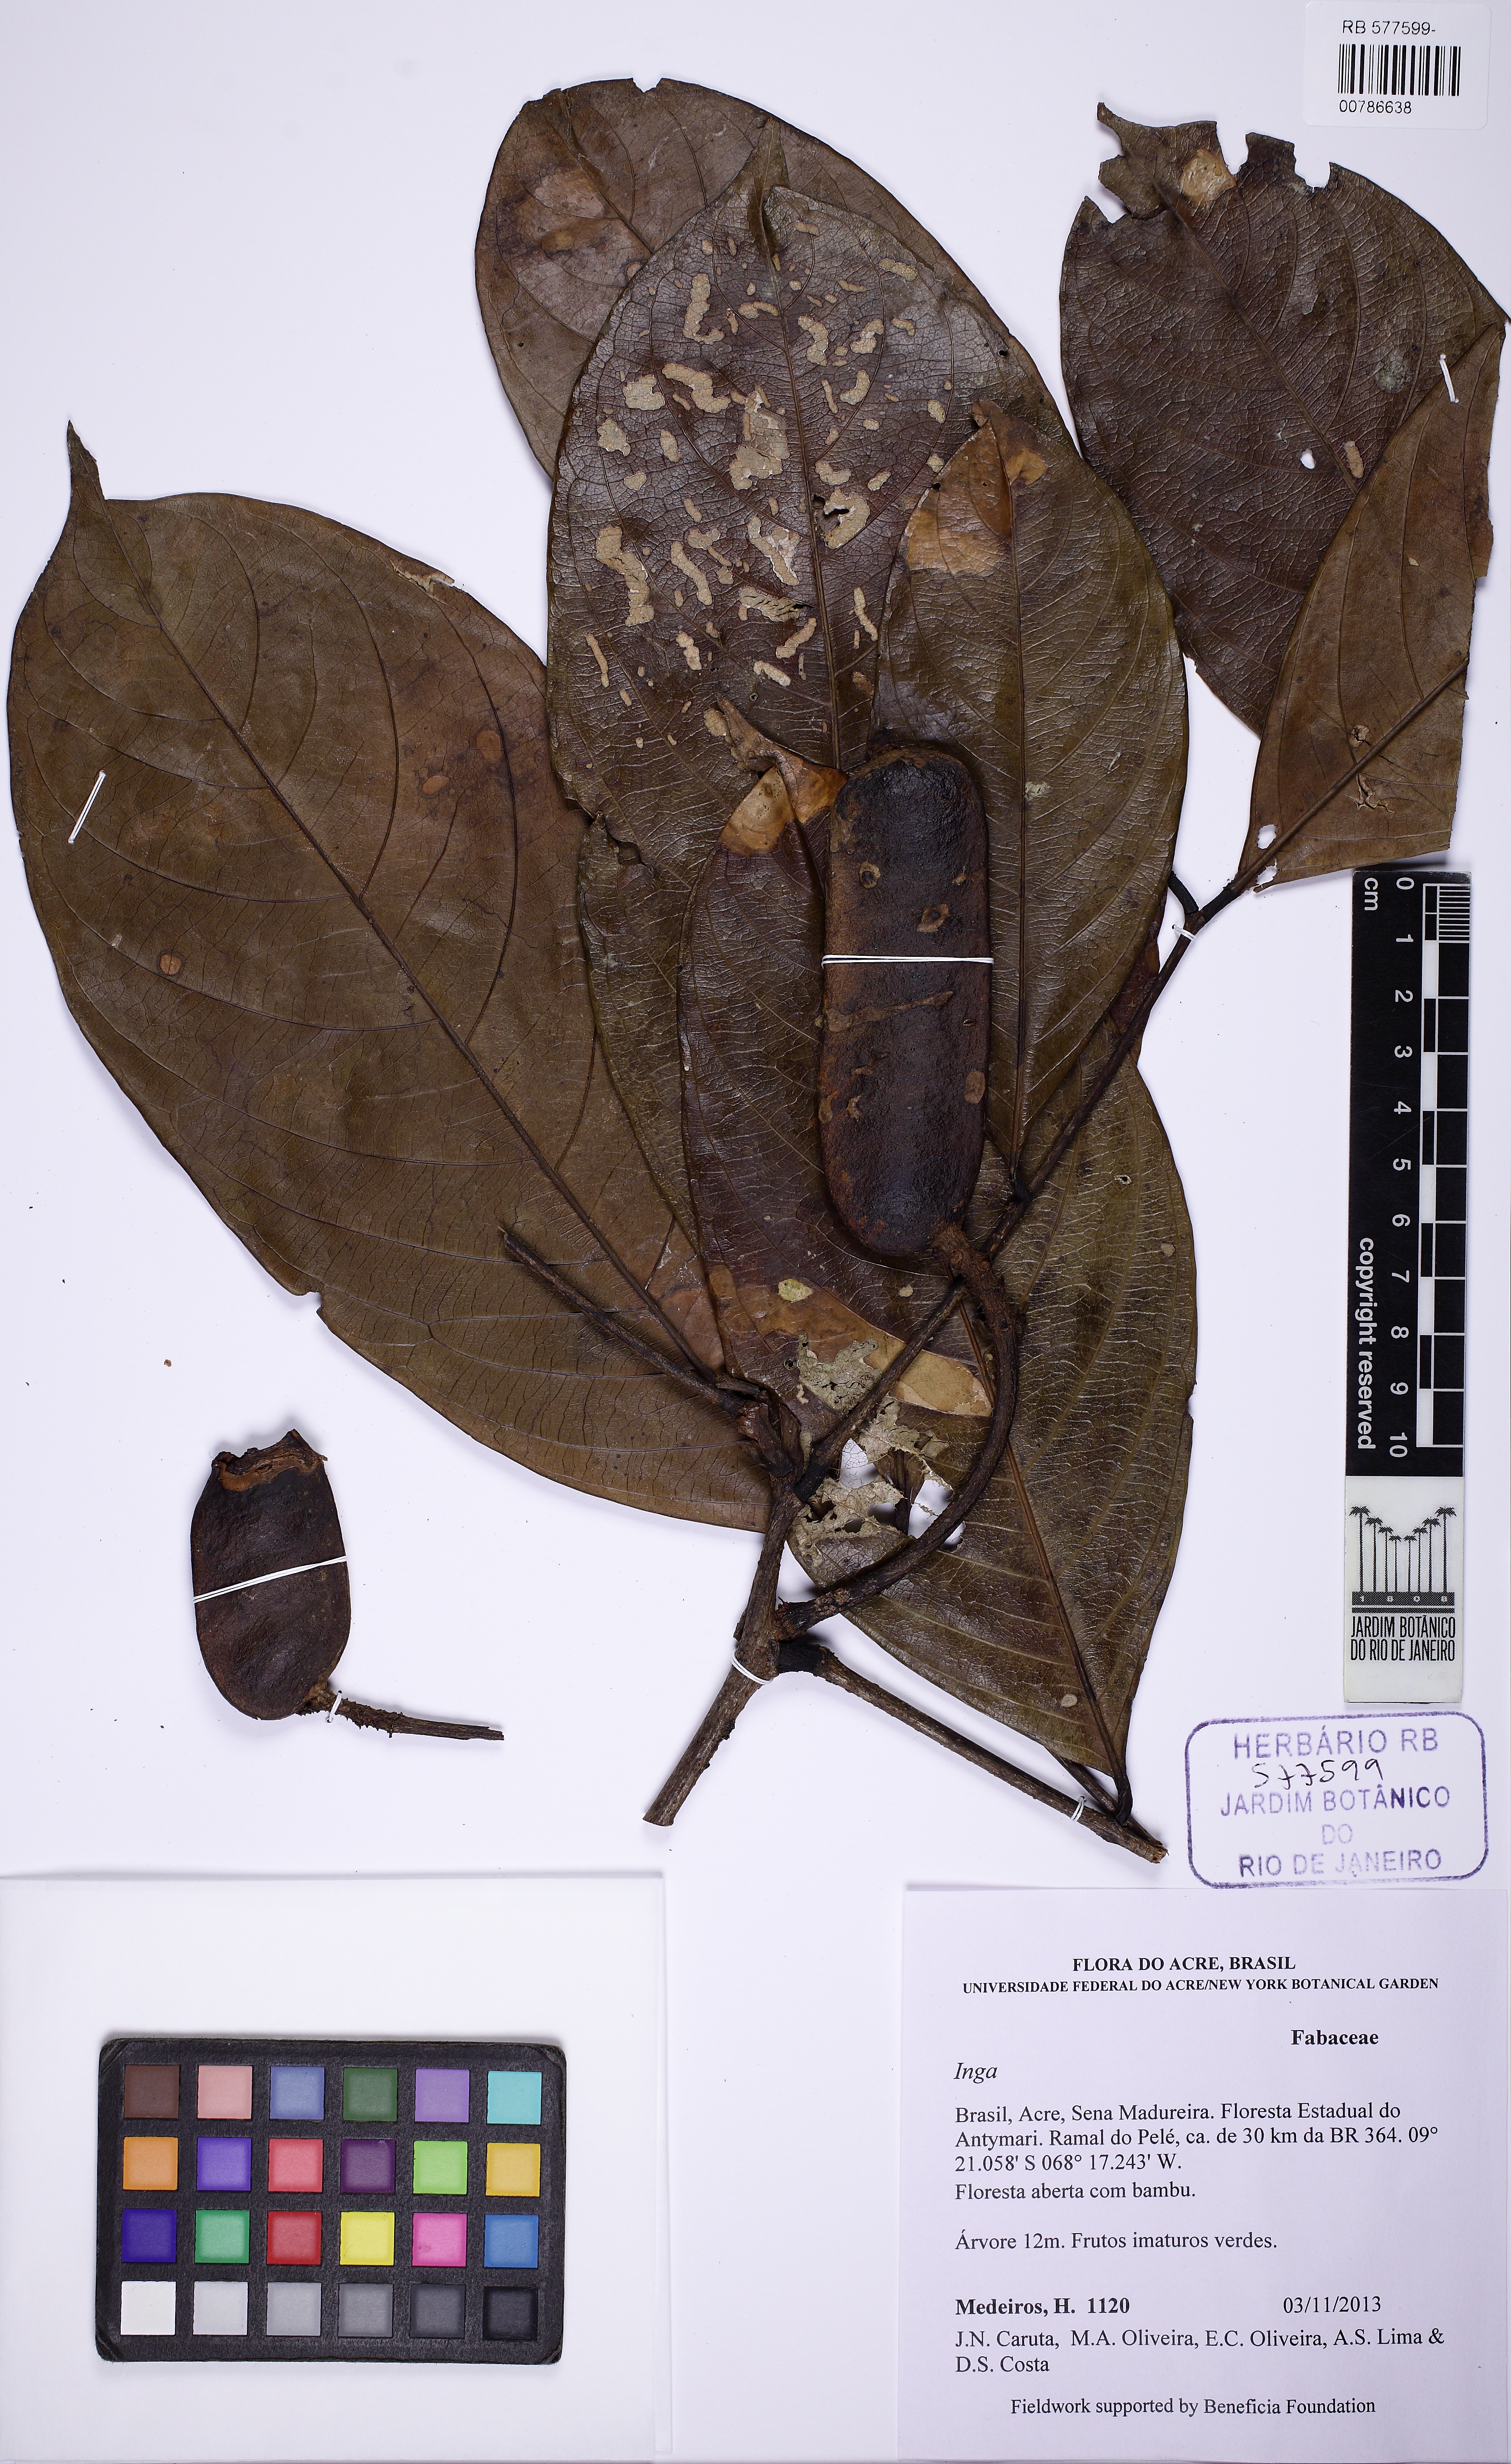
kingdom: Plantae
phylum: Tracheophyta
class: Magnoliopsida
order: Fabales
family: Fabaceae
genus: Inga
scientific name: Inga capitata
